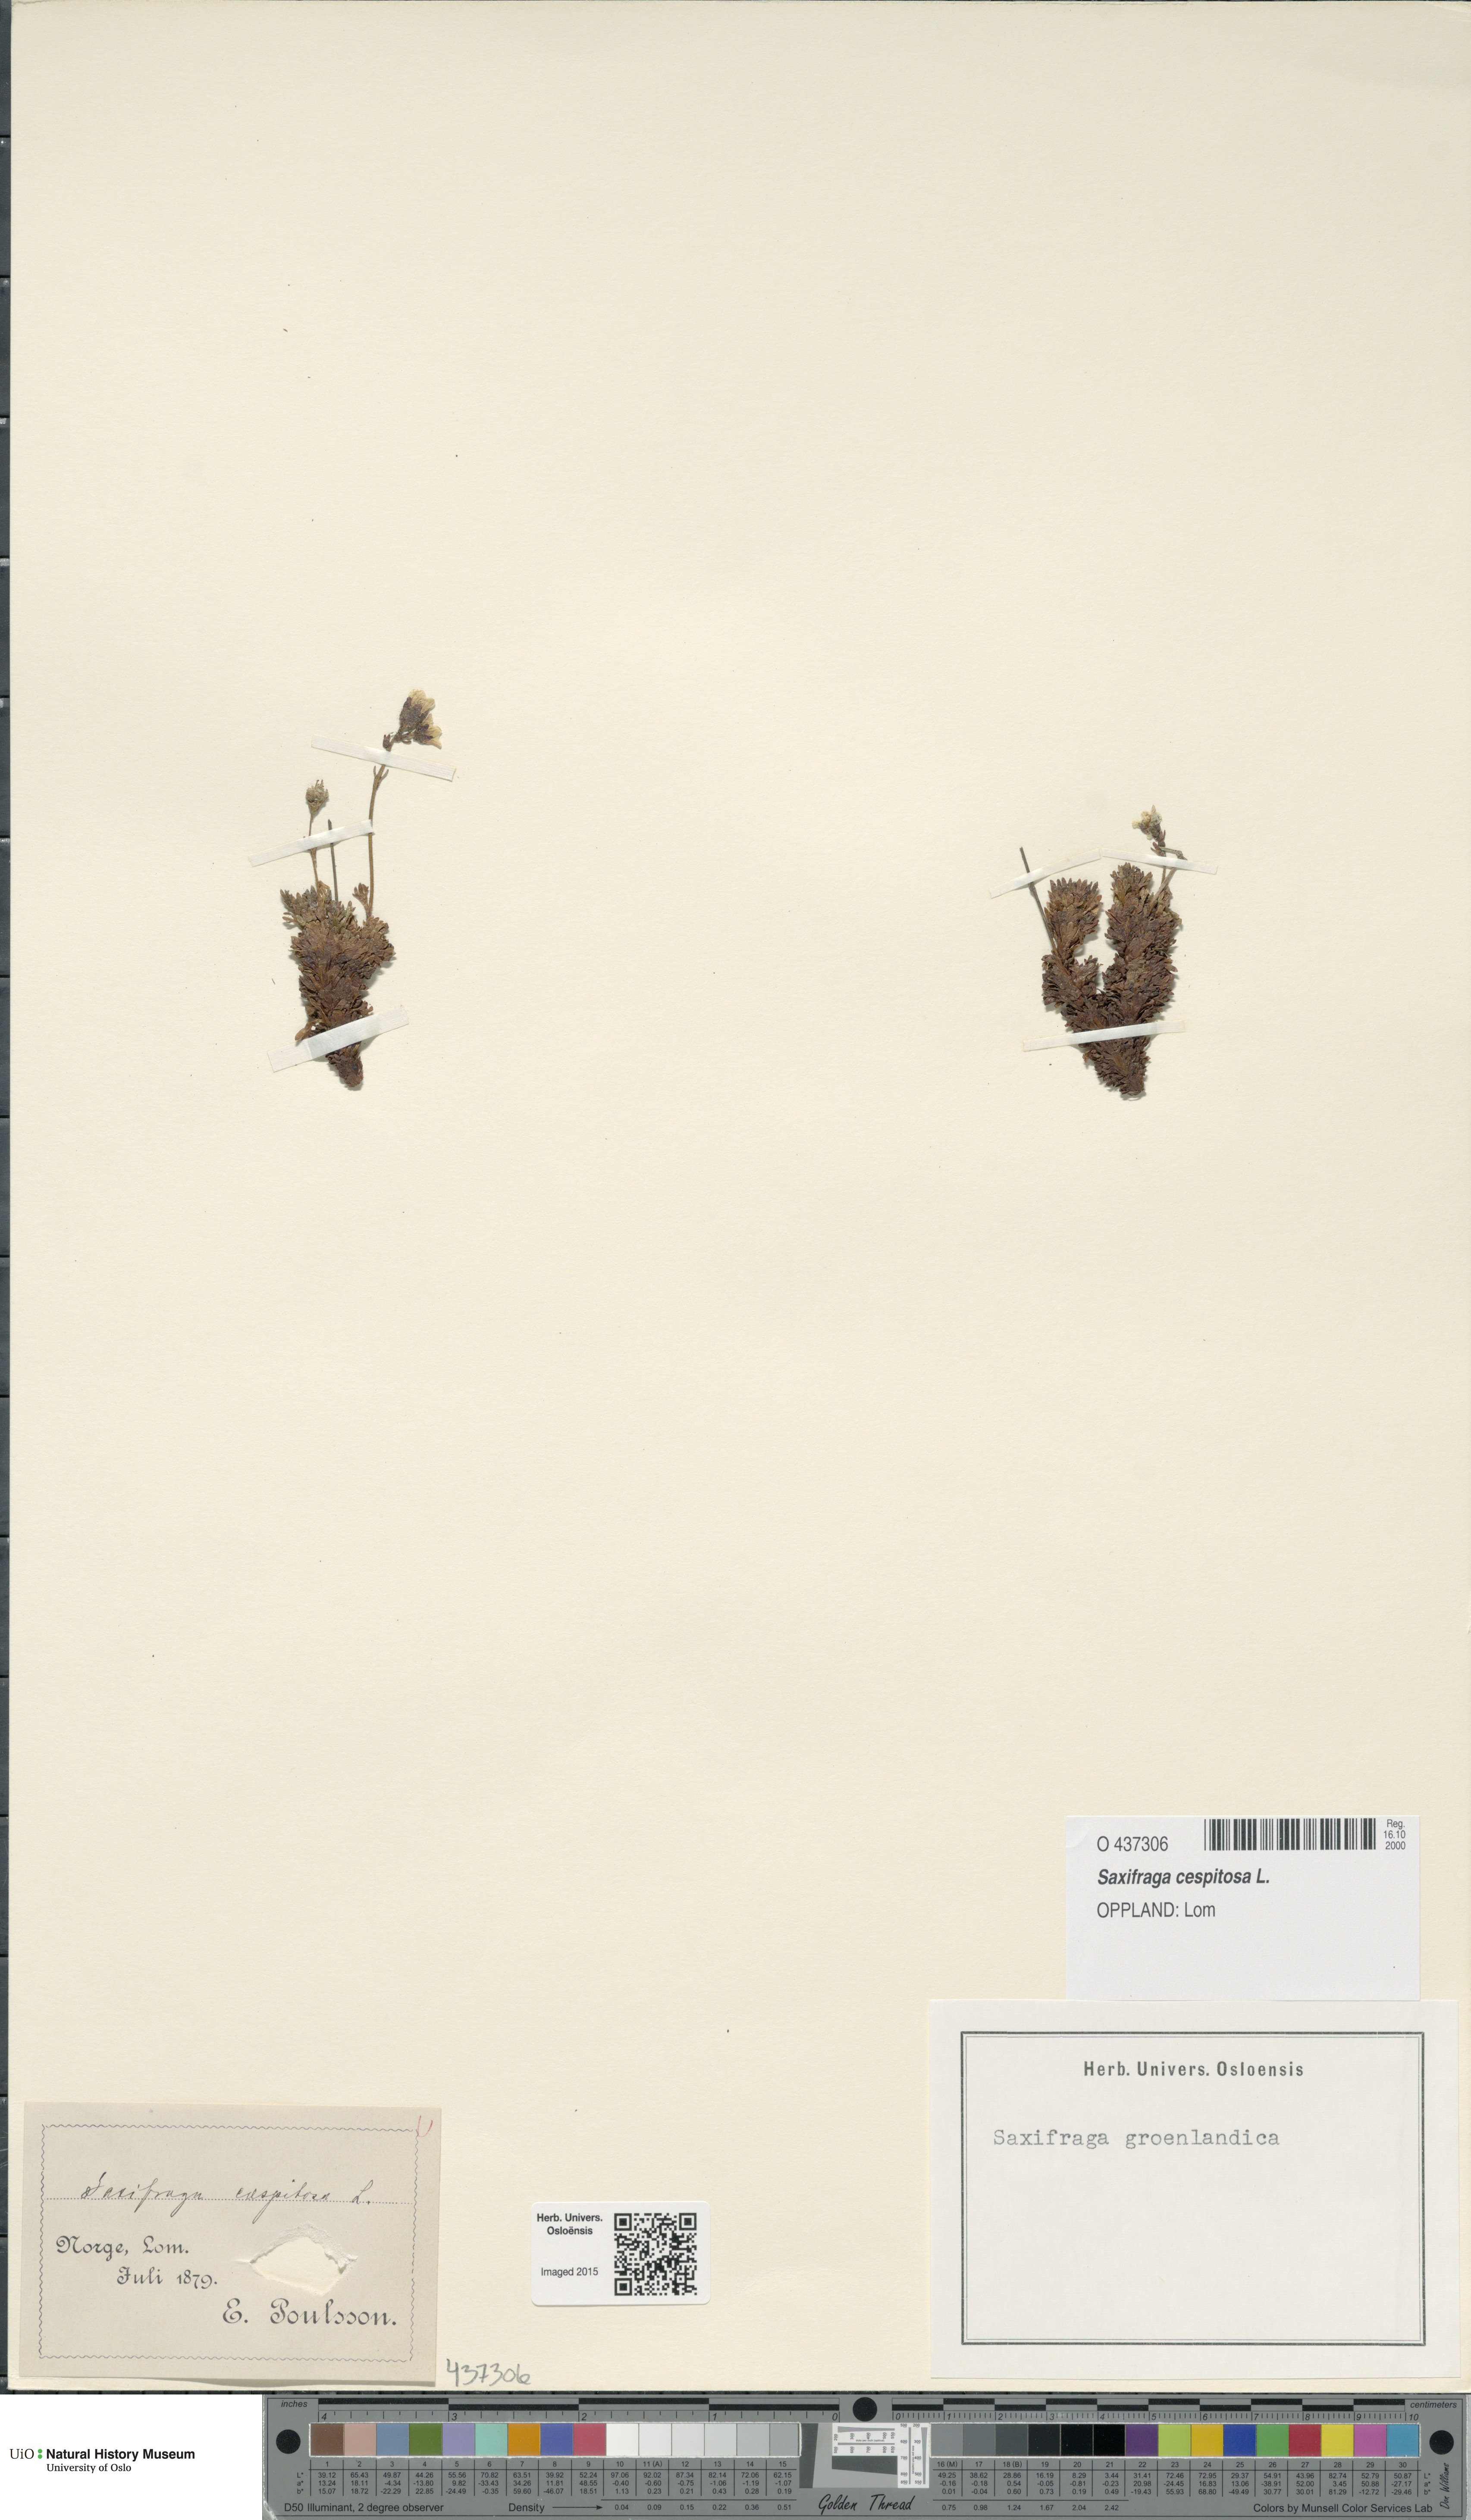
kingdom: Plantae
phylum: Tracheophyta
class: Magnoliopsida
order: Saxifragales
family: Saxifragaceae
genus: Saxifraga
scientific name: Saxifraga cespitosa
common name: Tufted saxifrage
